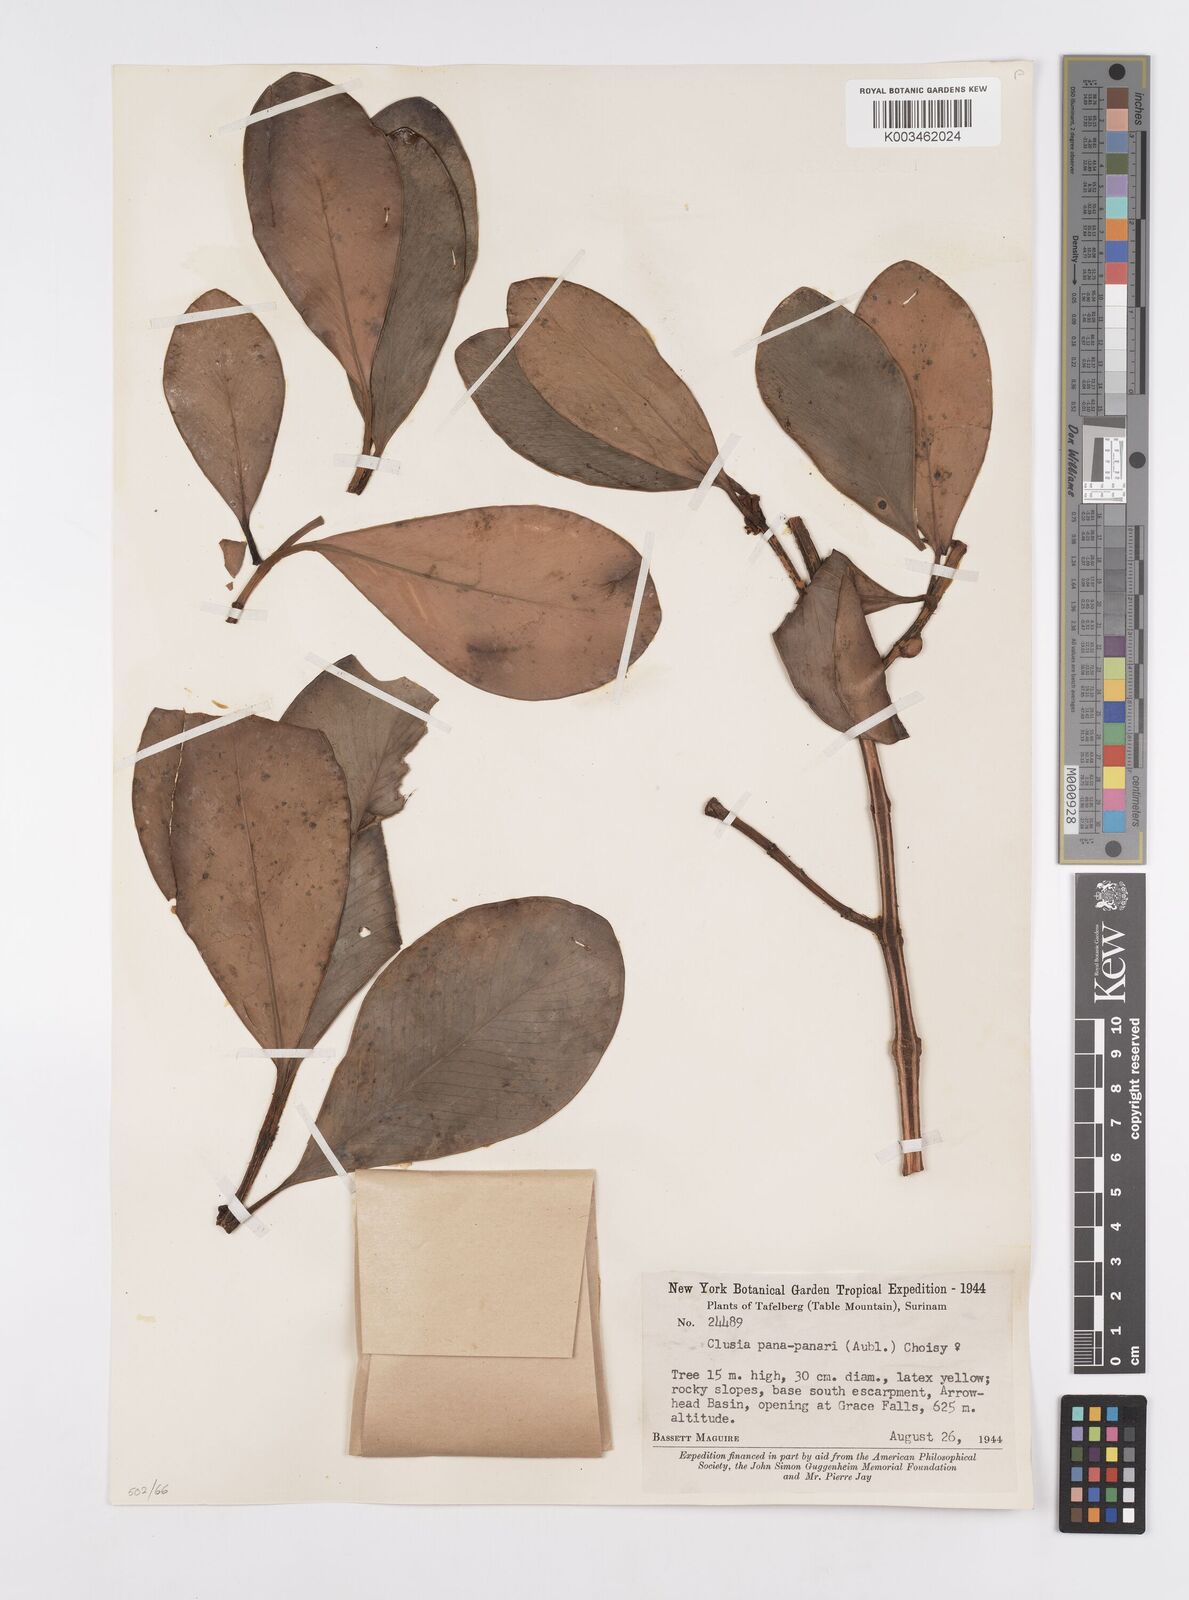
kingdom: Plantae
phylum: Tracheophyta
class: Magnoliopsida
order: Malpighiales
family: Clusiaceae
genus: Clusia
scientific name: Clusia panapanari
